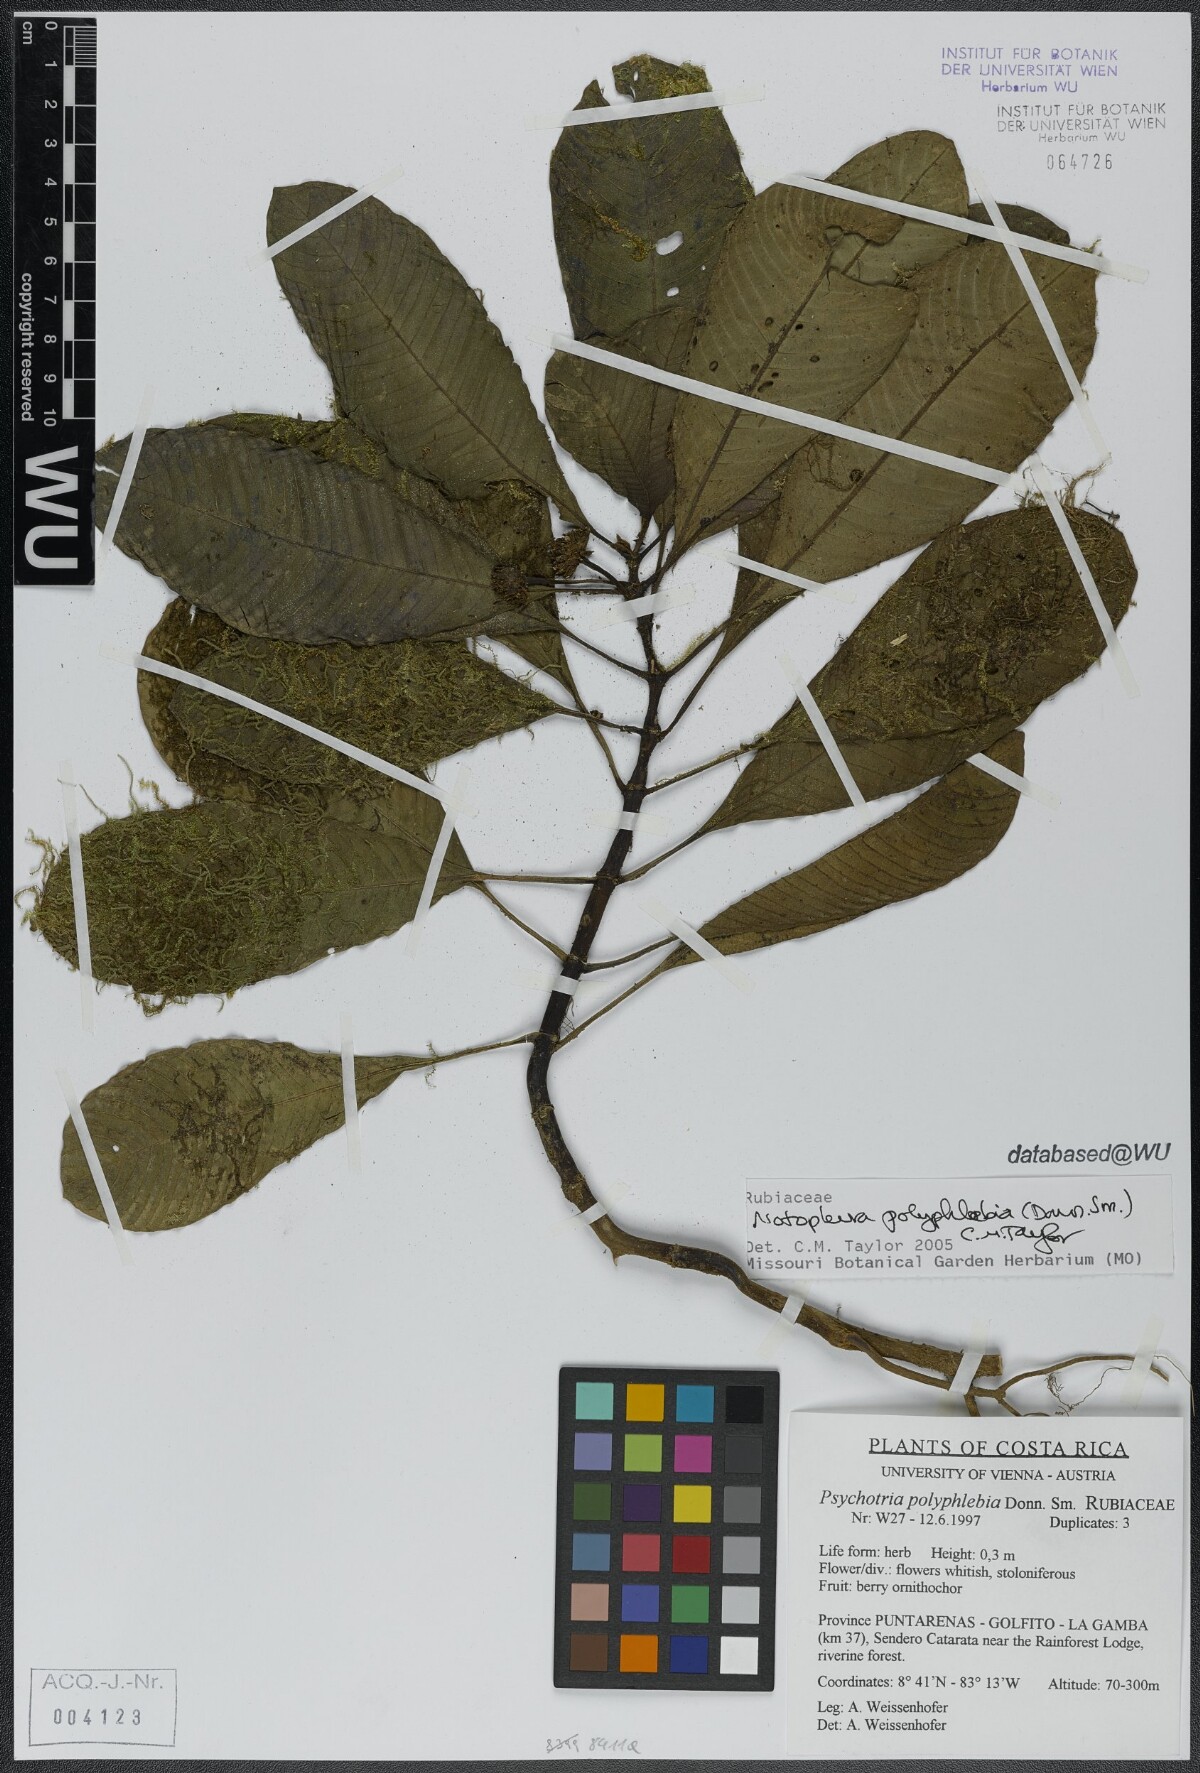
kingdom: Plantae
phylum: Tracheophyta
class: Magnoliopsida
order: Gentianales
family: Rubiaceae
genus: Notopleura
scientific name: Notopleura polyphlebia
